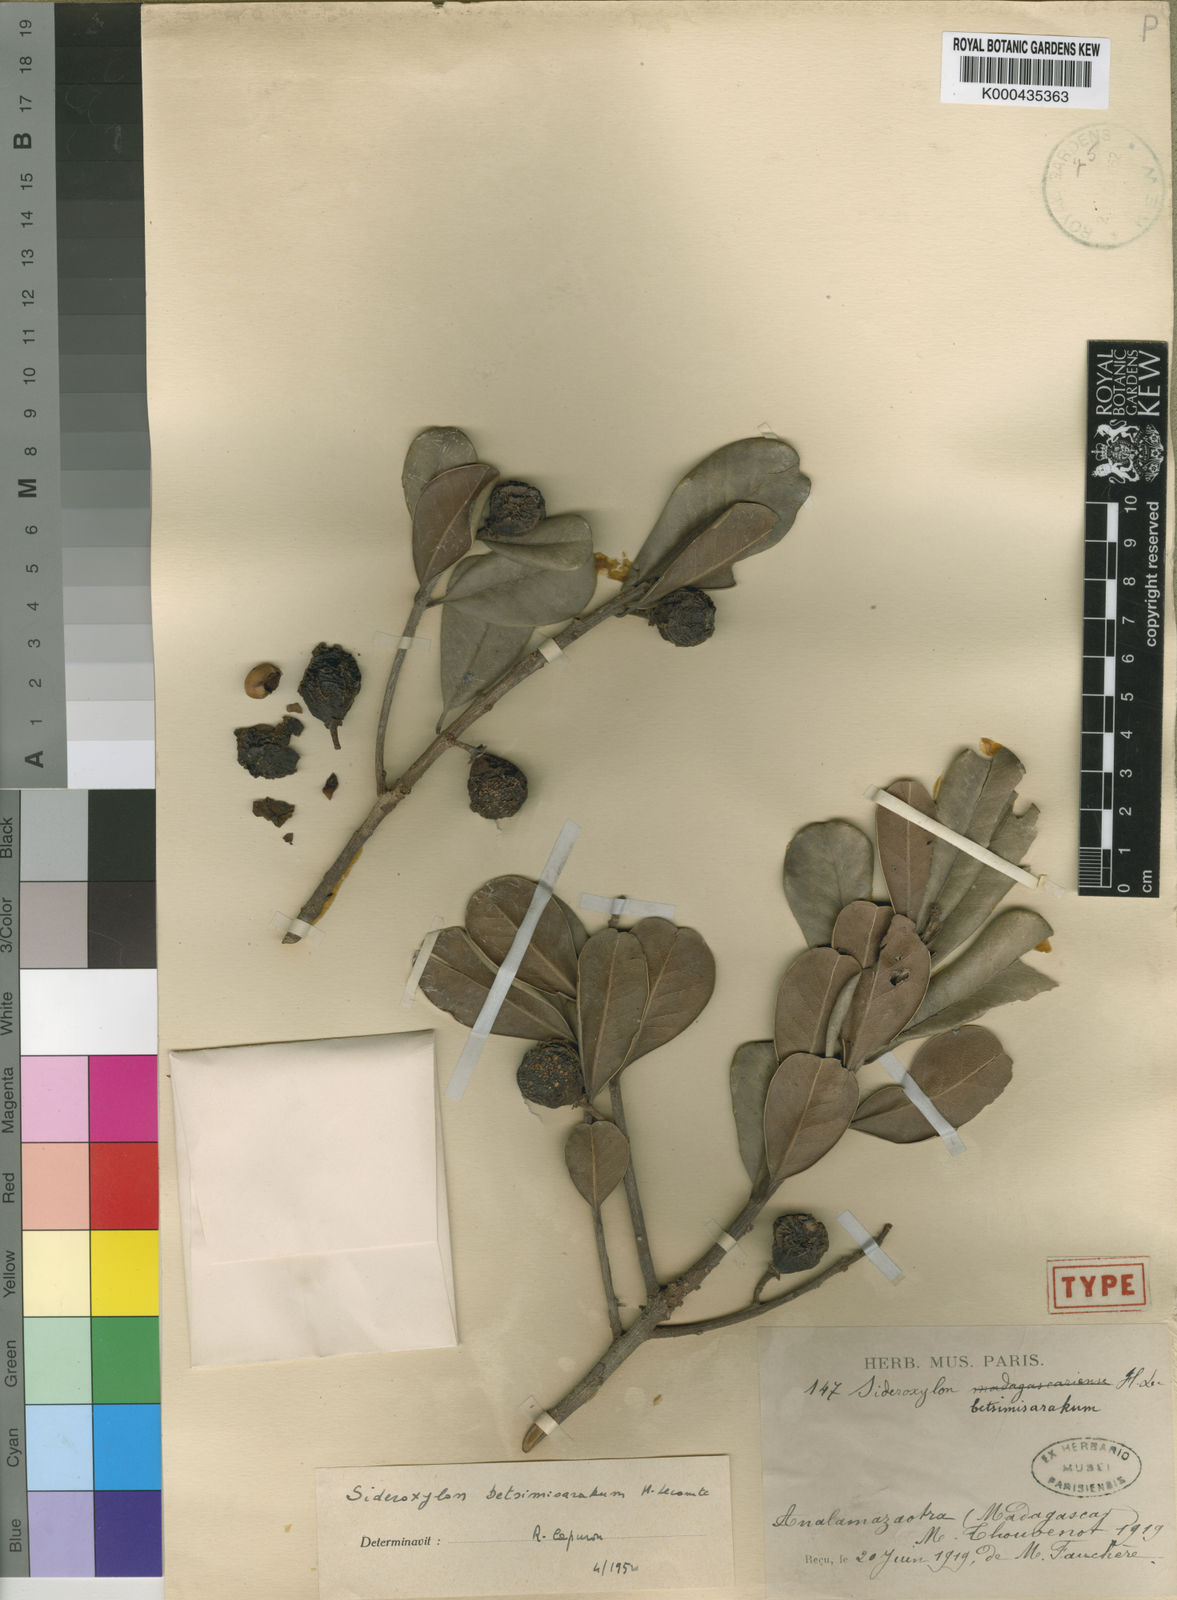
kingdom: Plantae
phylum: Tracheophyta
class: Magnoliopsida
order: Ericales
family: Sapotaceae
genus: Sideroxylon
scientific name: Sideroxylon betsimisarakum
